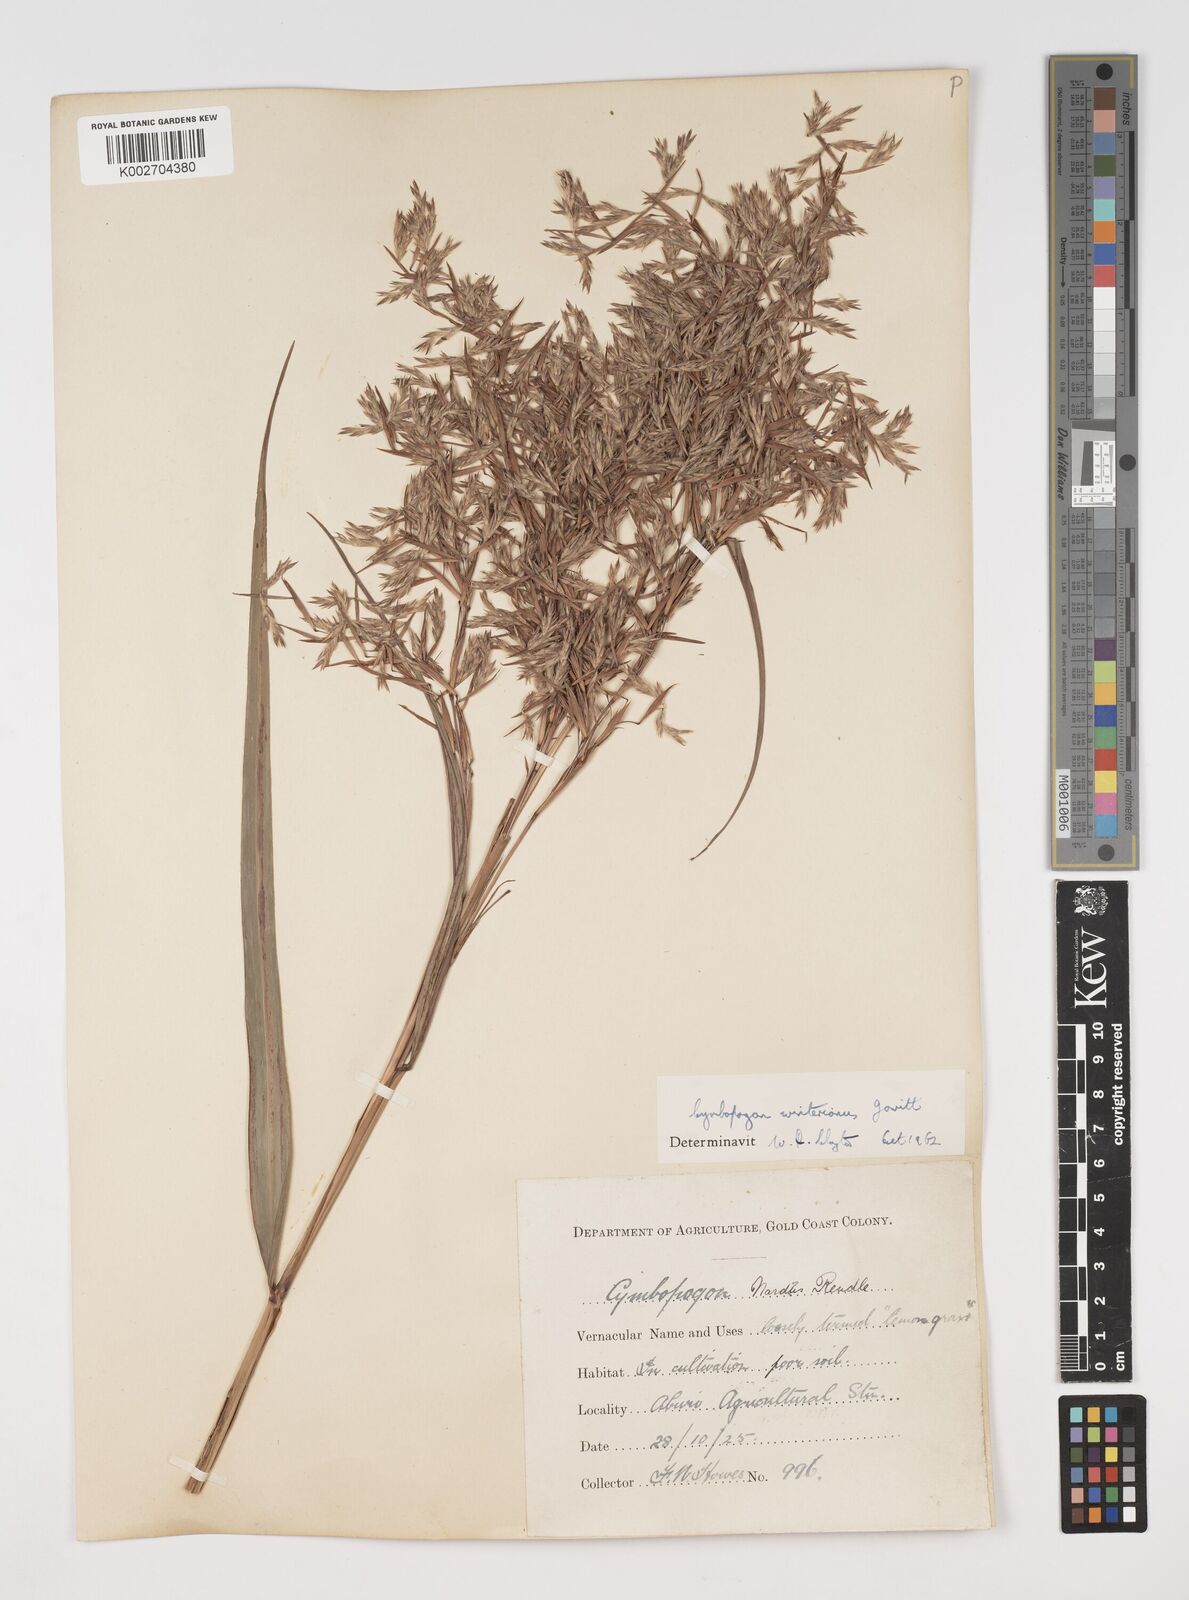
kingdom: Plantae
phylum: Tracheophyta
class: Liliopsida
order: Poales
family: Poaceae
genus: Cymbopogon
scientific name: Cymbopogon winterianus
